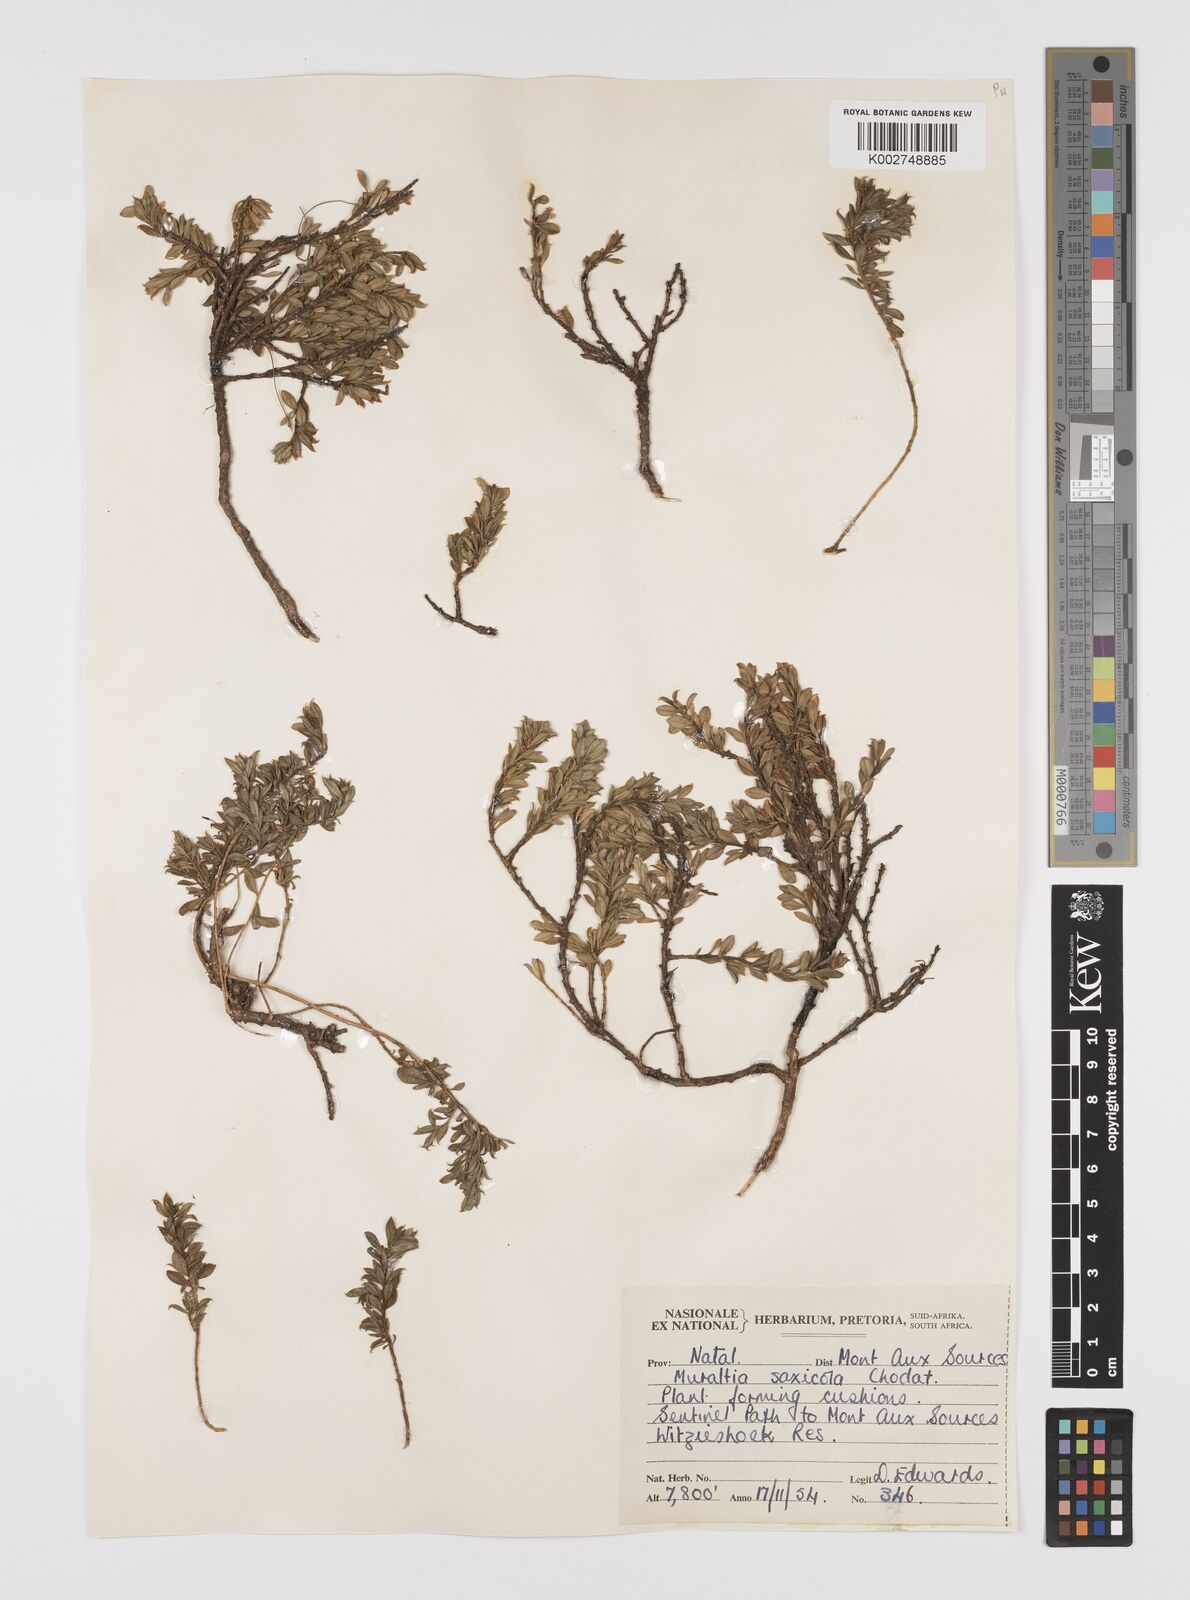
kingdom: Plantae
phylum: Tracheophyta
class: Magnoliopsida
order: Fabales
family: Polygalaceae
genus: Muraltia
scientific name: Muraltia saxicola
